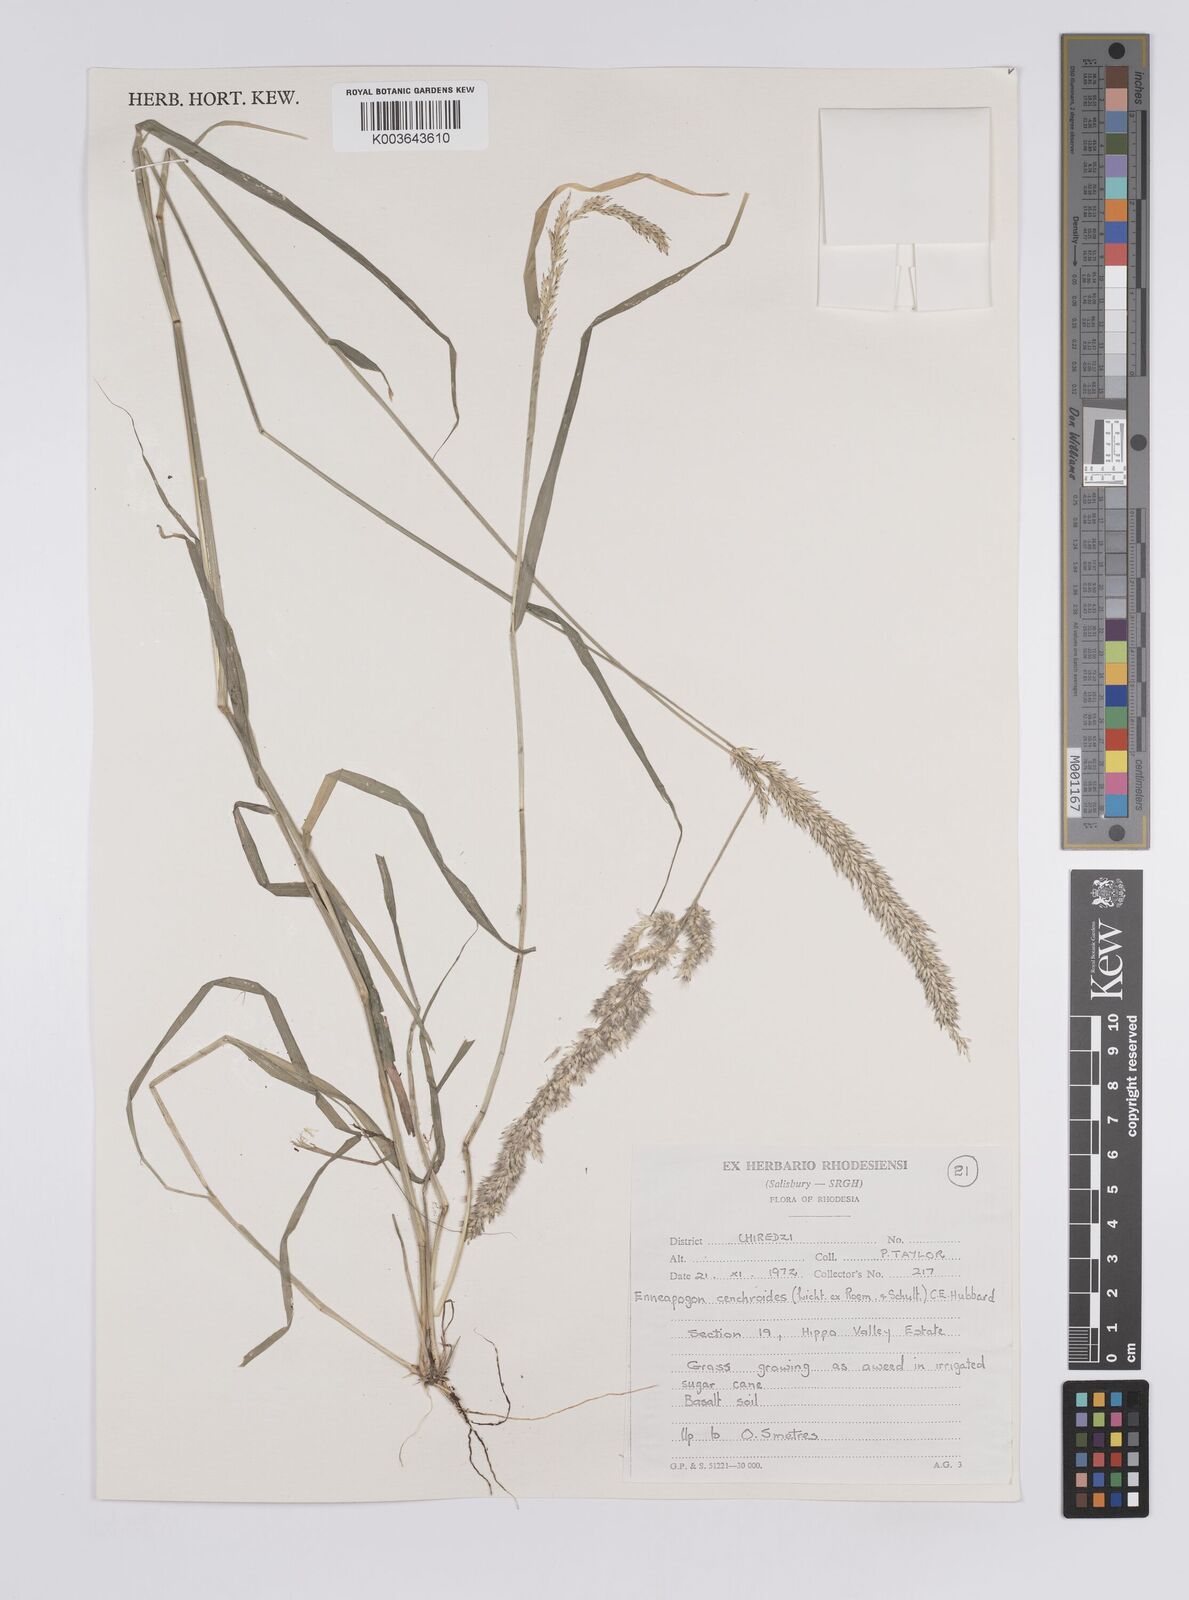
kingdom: Plantae
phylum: Tracheophyta
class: Liliopsida
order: Poales
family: Poaceae
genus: Enneapogon
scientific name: Enneapogon cenchroides
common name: Soft feather pappusgrass
